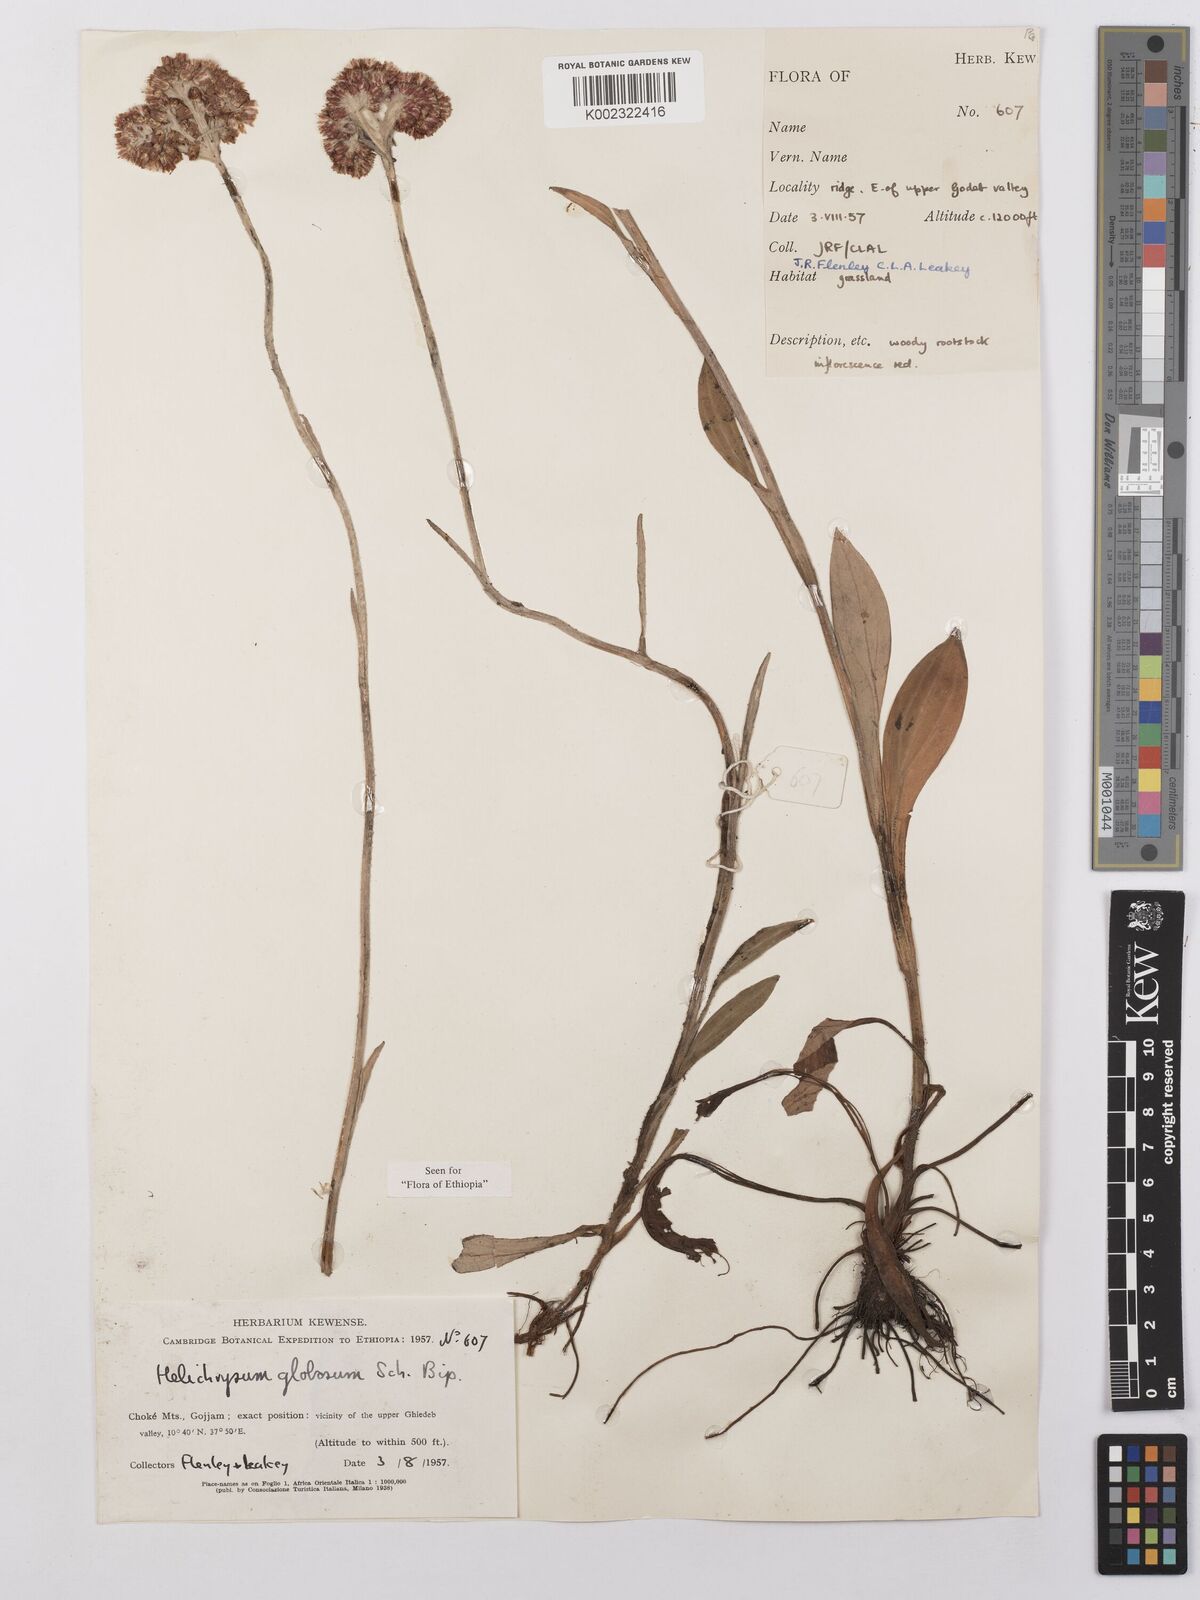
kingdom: Plantae
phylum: Tracheophyta
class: Magnoliopsida
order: Asterales
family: Asteraceae
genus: Helichrysum
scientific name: Helichrysum globosum
